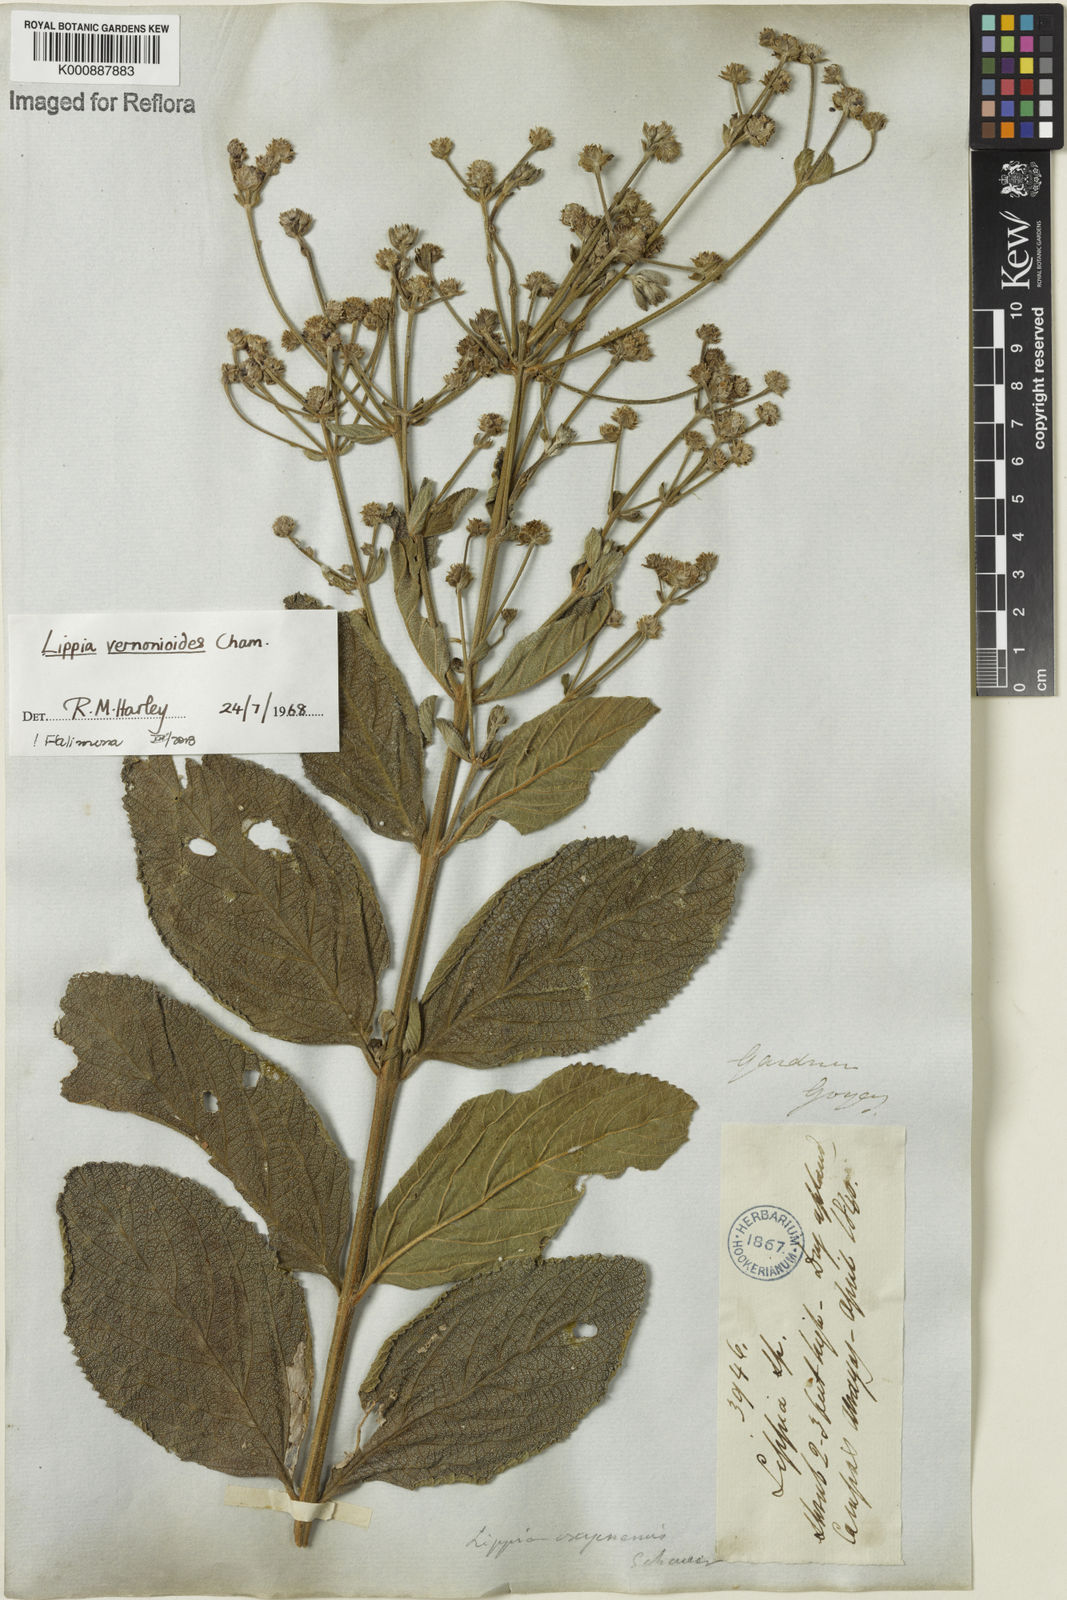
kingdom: Plantae
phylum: Tracheophyta
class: Magnoliopsida
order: Lamiales
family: Verbenaceae
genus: Lippia
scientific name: Lippia vernonioides
